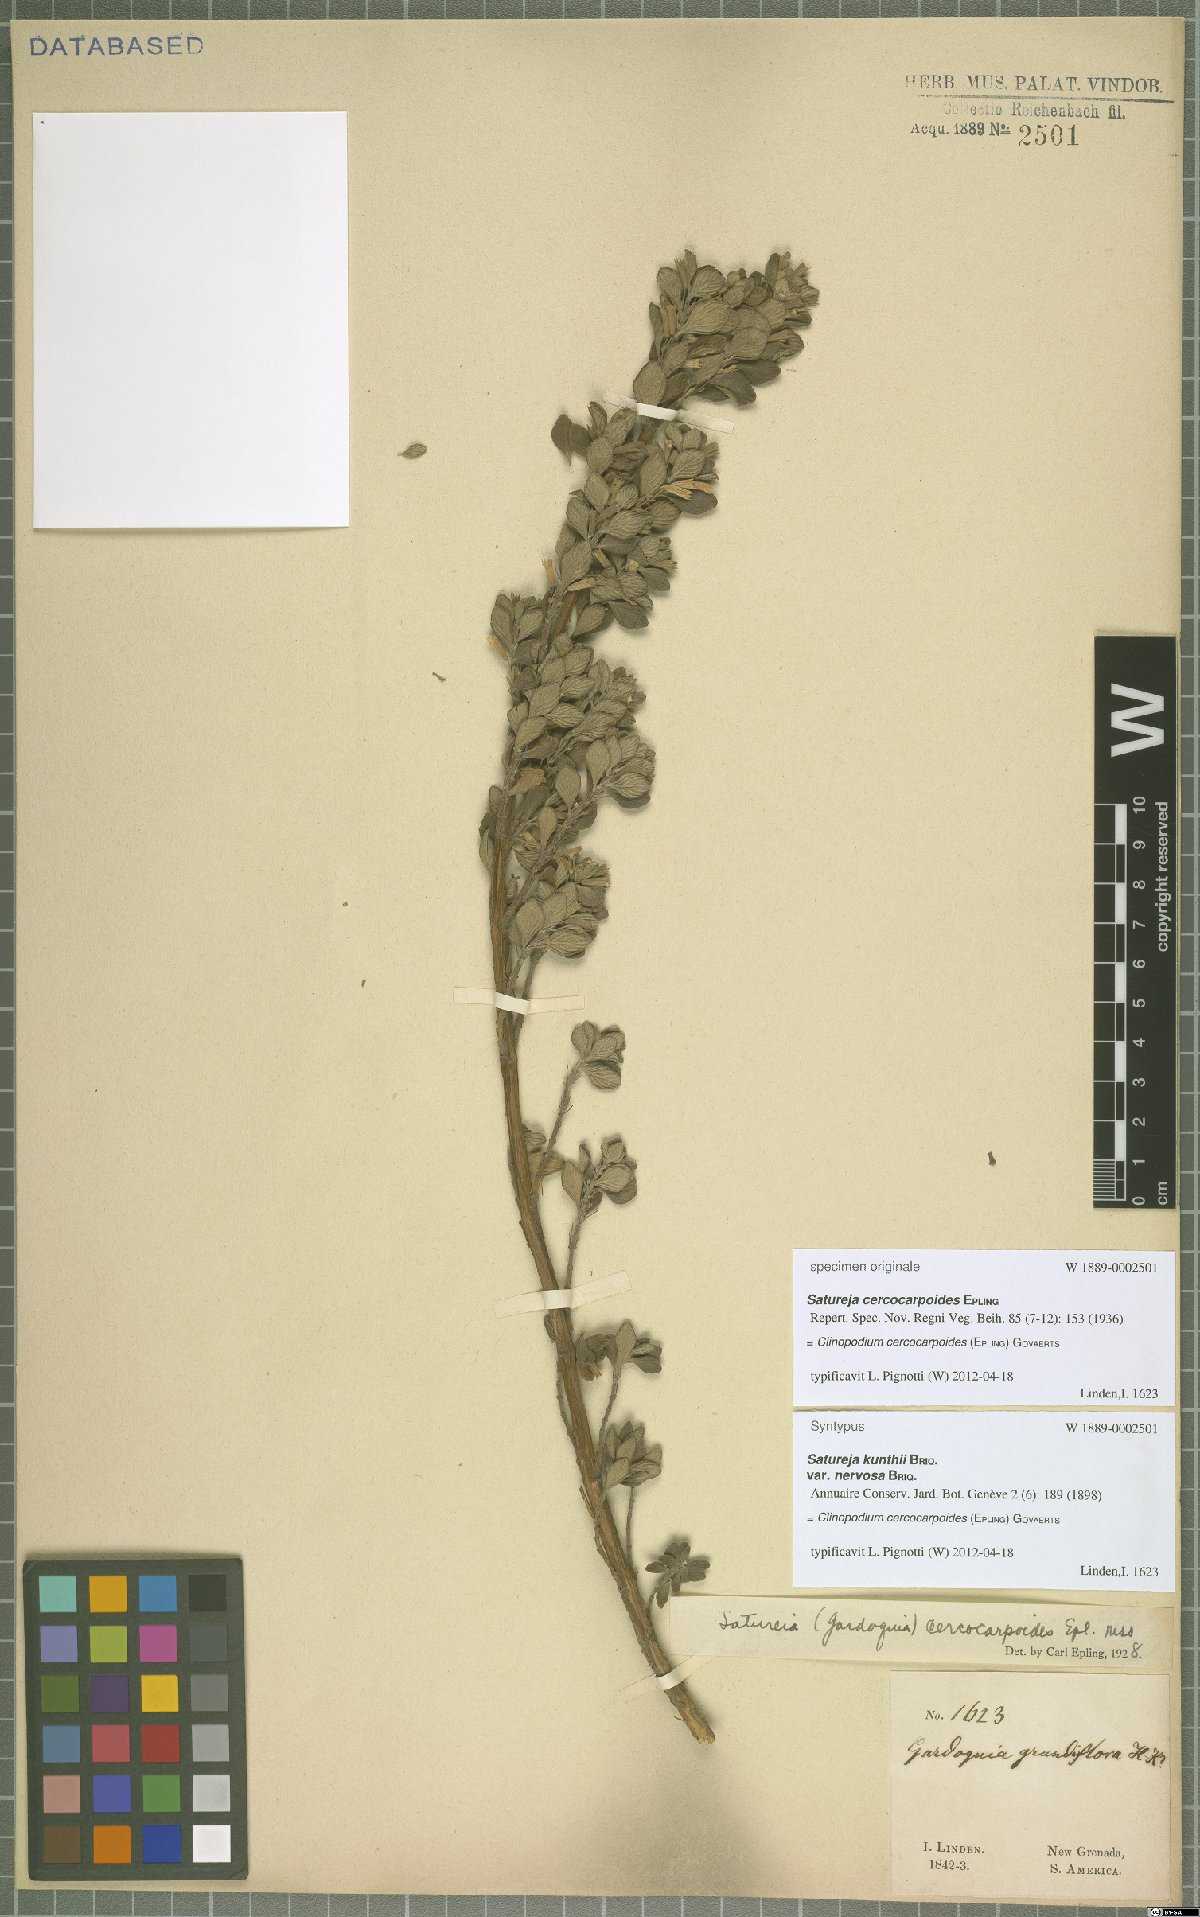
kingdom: Plantae
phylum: Tracheophyta
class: Magnoliopsida
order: Lamiales
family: Lamiaceae
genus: Clinopodium
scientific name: Clinopodium cercocarpoides
